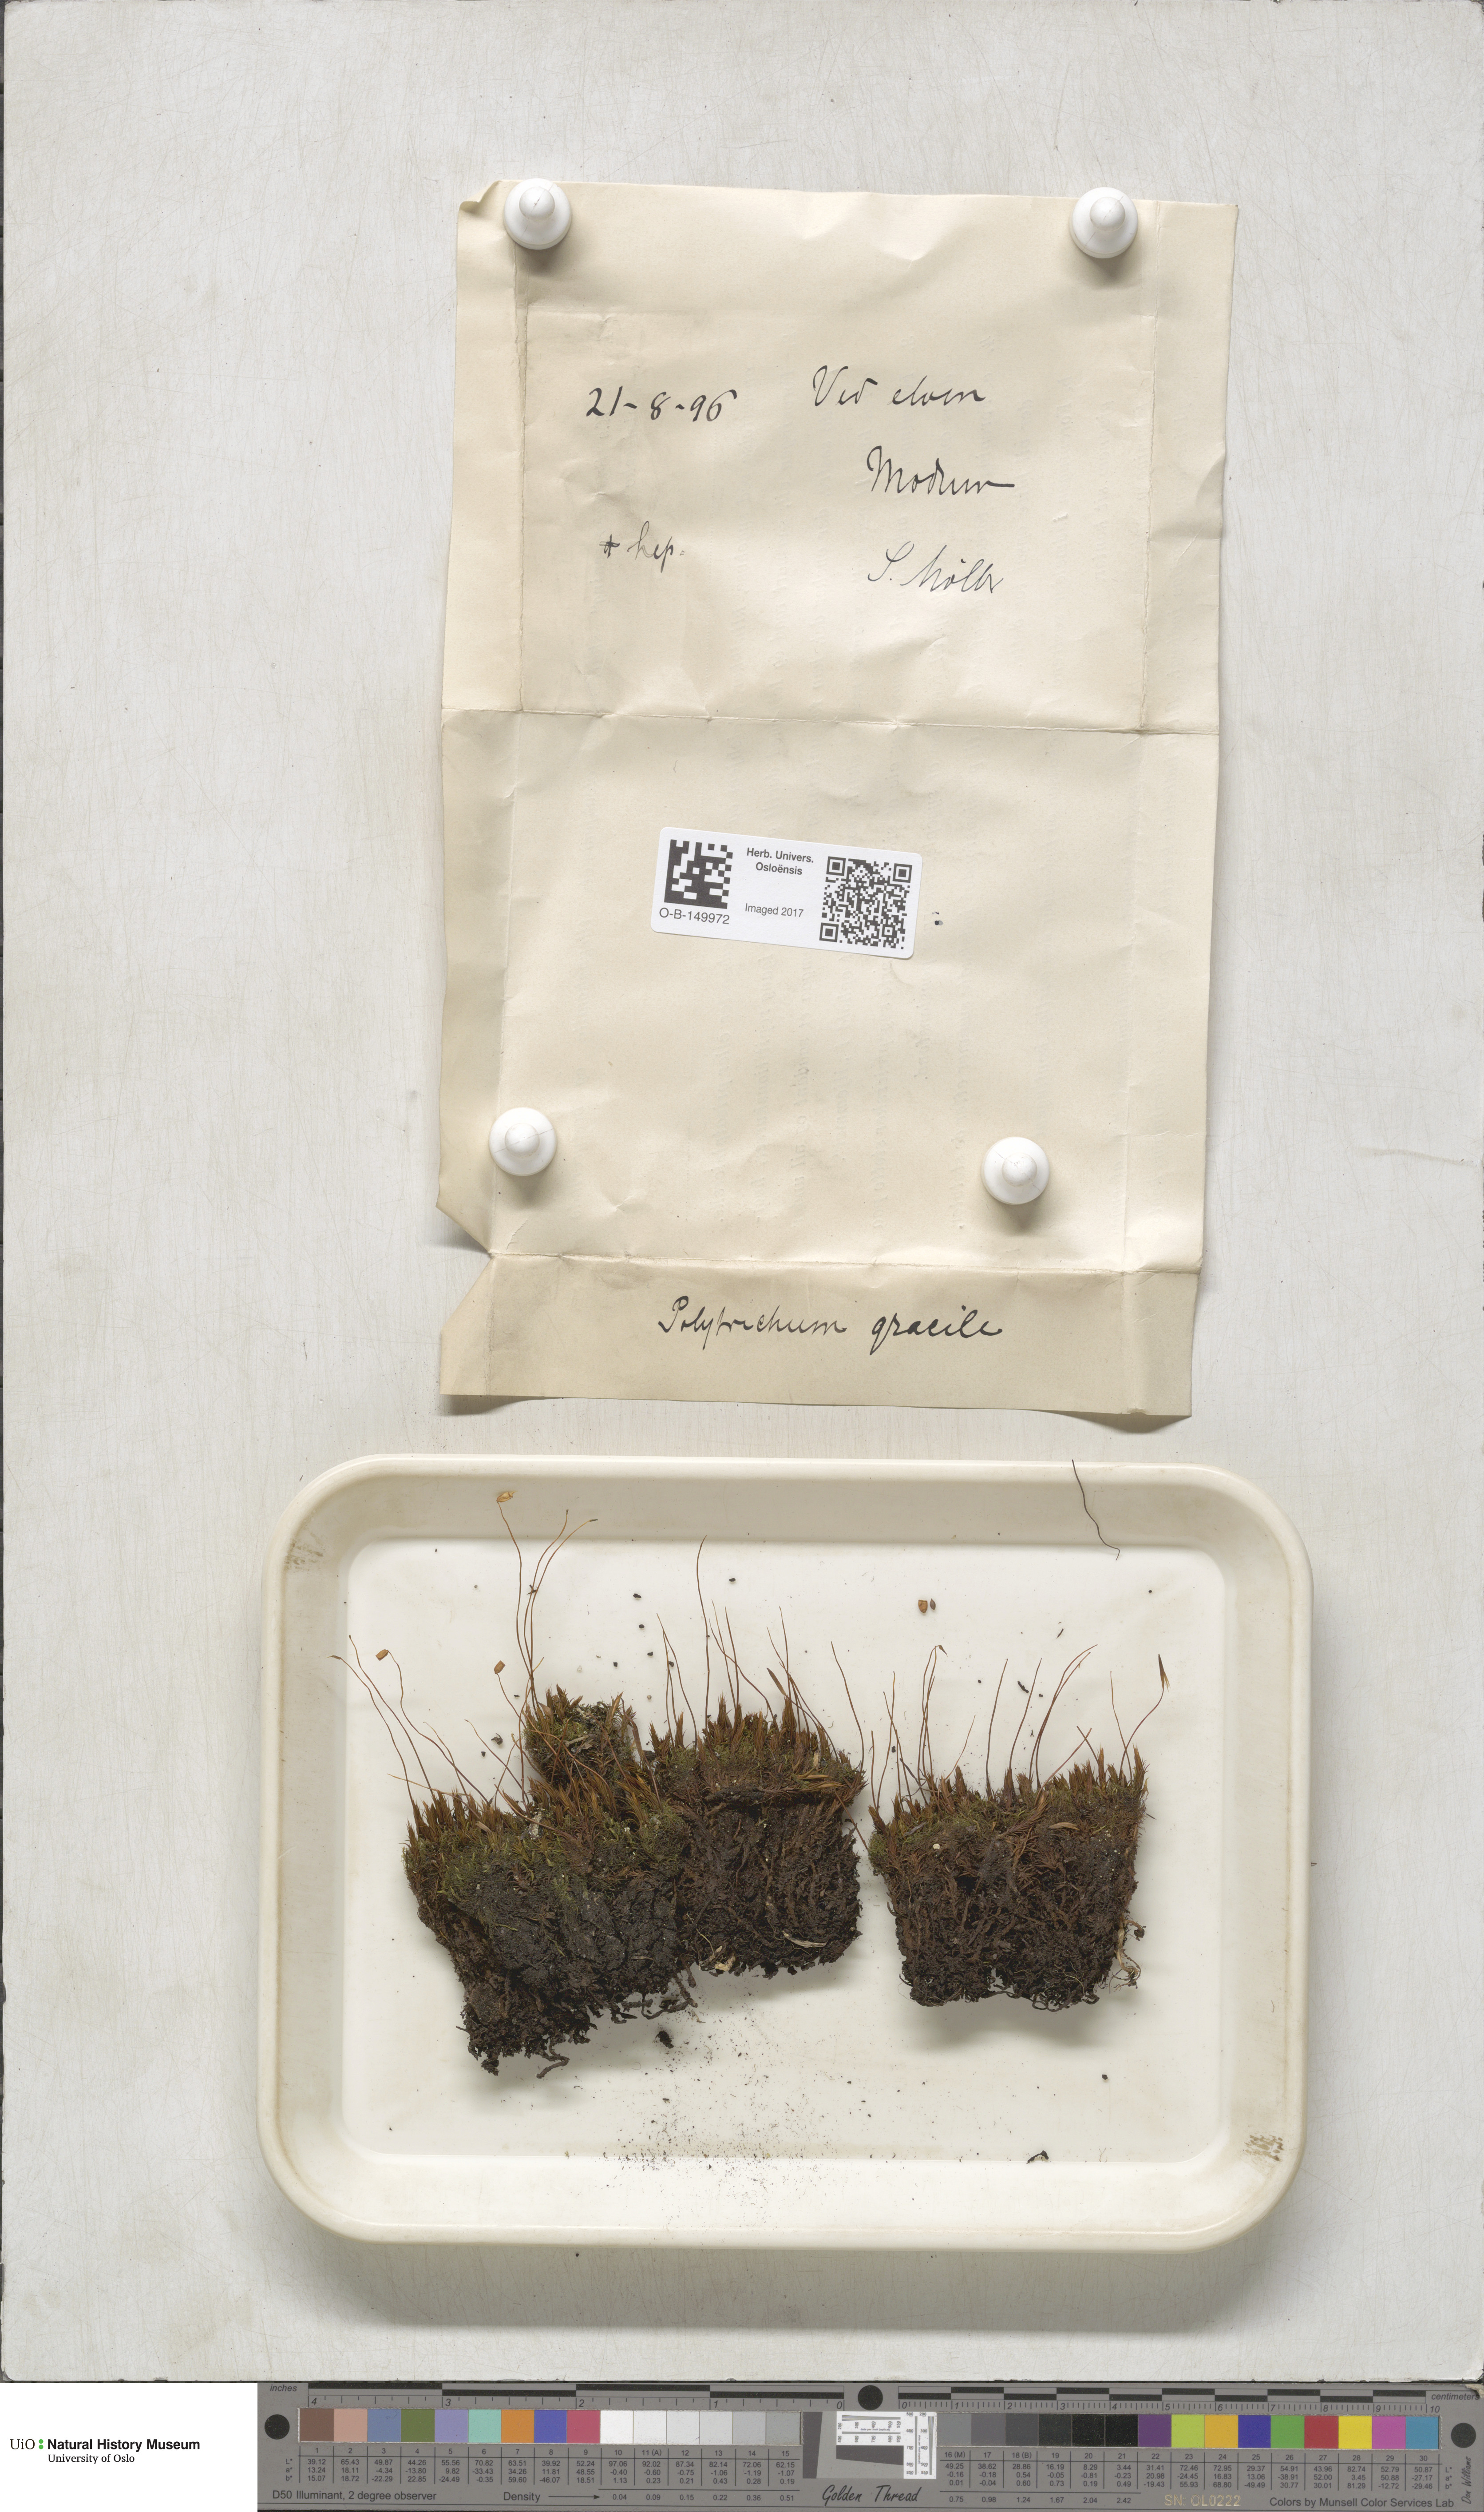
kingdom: Plantae
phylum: Bryophyta
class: Polytrichopsida
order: Polytrichales
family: Polytrichaceae
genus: Polytrichum
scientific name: Polytrichum longisetum
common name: Long-stalked haircap moss
